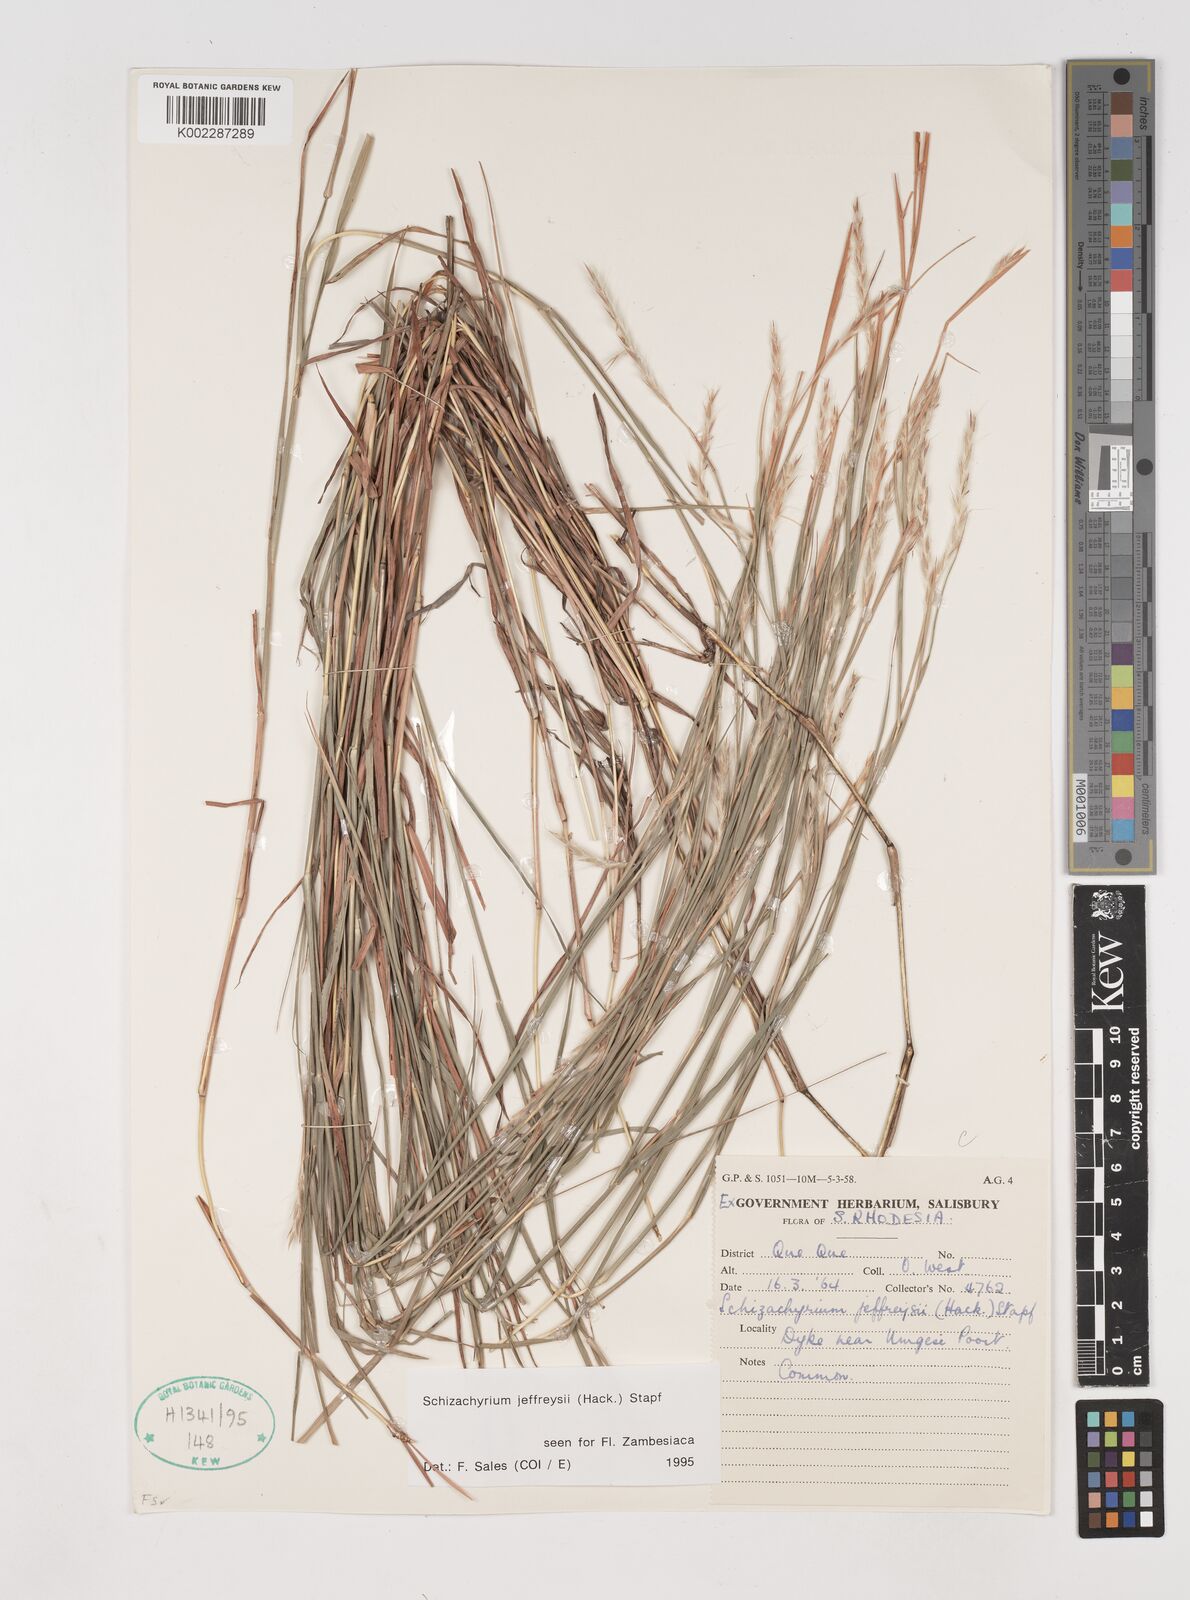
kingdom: Plantae
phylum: Tracheophyta
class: Liliopsida
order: Poales
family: Poaceae
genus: Schizachyrium
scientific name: Schizachyrium jeffreysii
